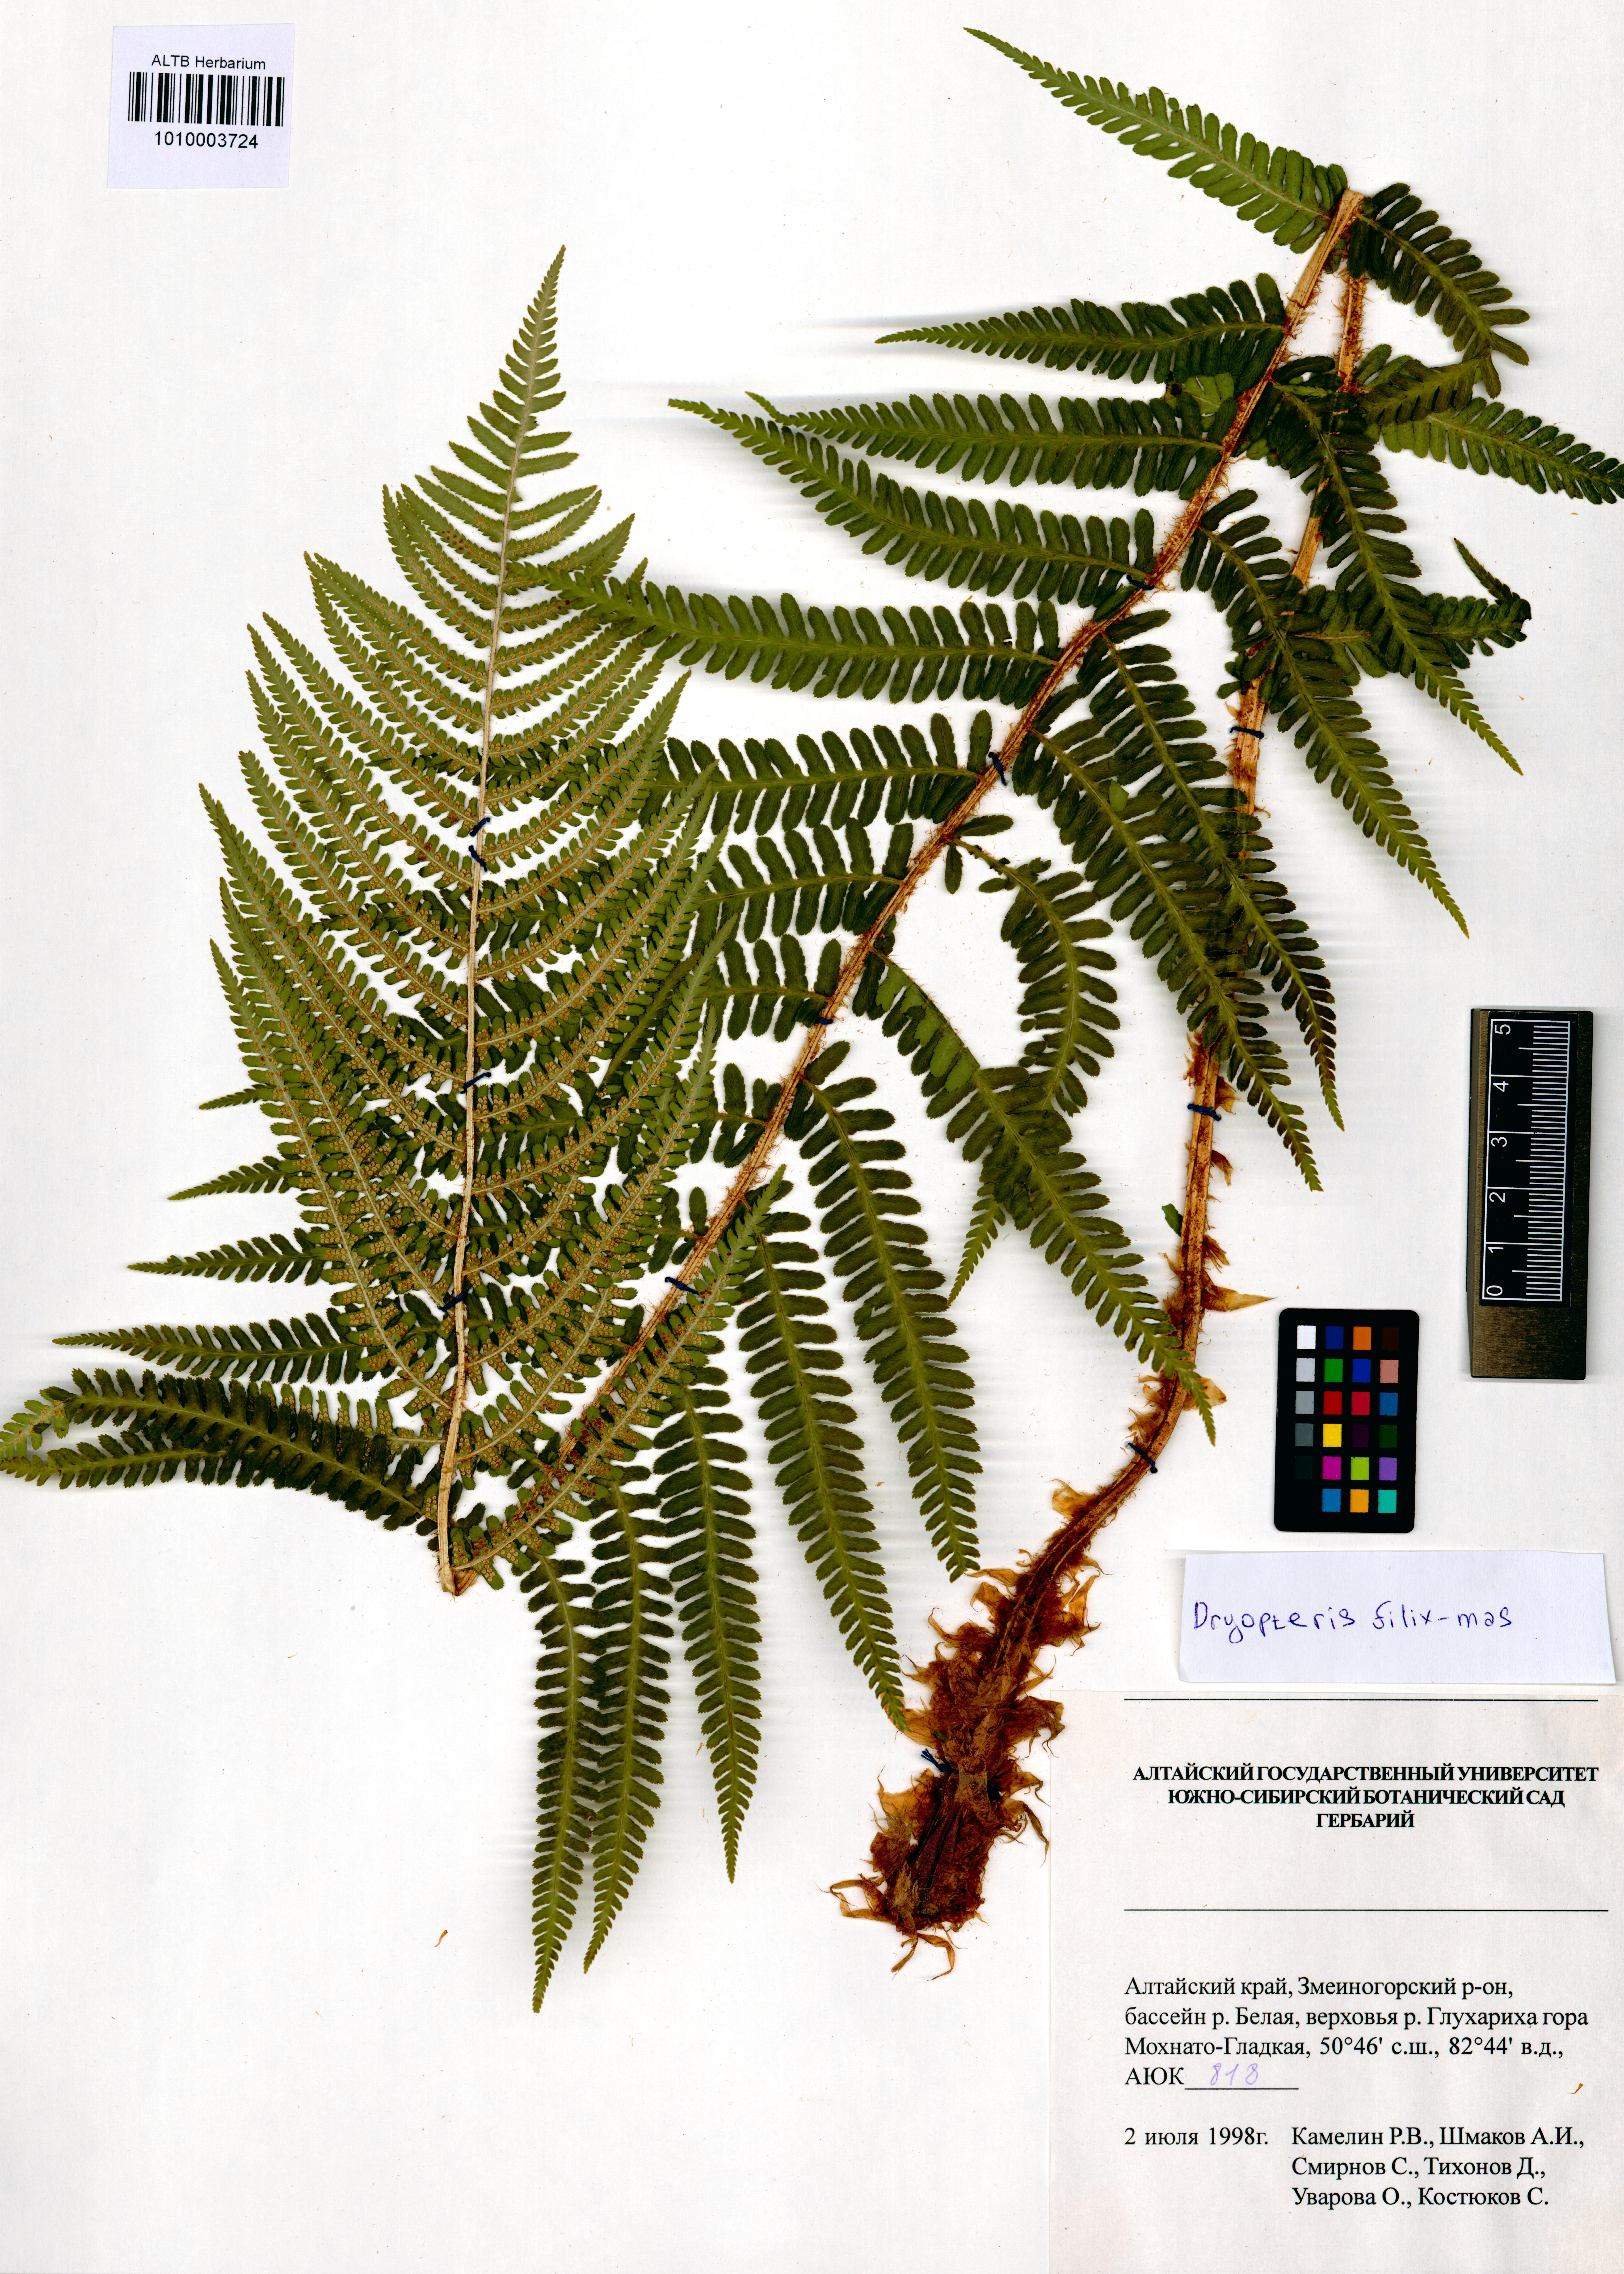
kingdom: Plantae
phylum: Tracheophyta
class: Polypodiopsida
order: Polypodiales
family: Dryopteridaceae
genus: Dryopteris
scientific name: Dryopteris filix-mas
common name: Male fern
